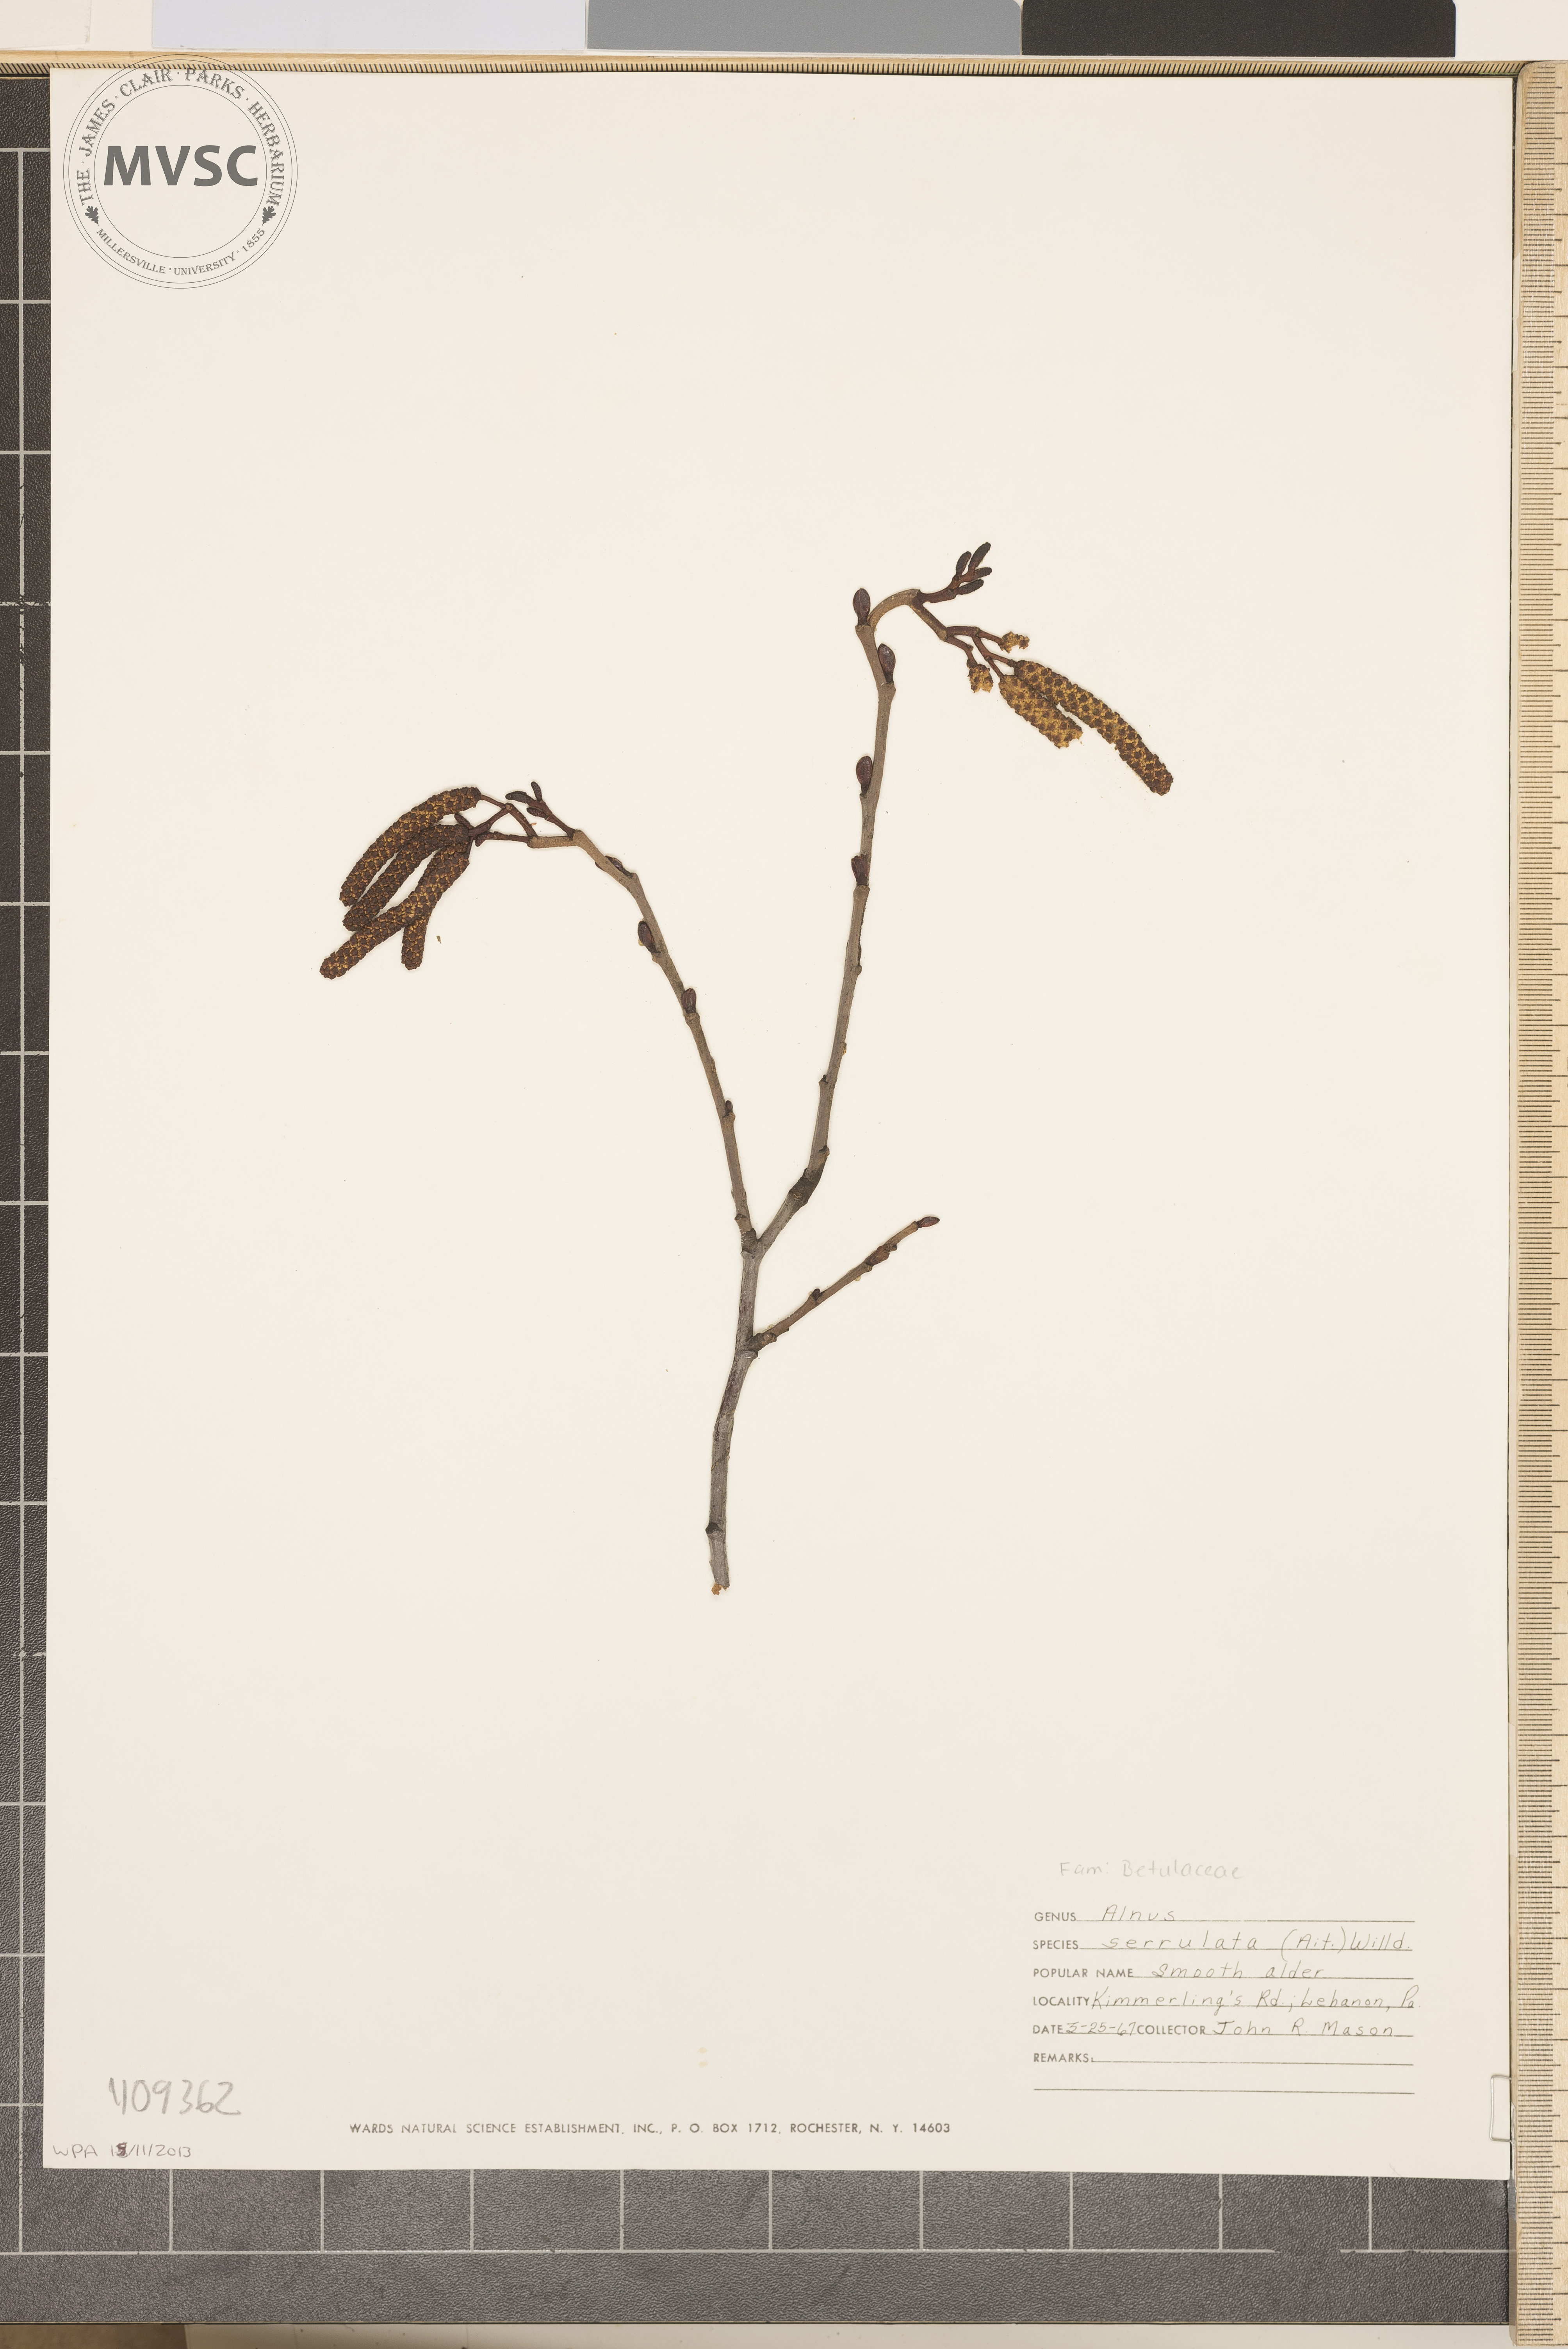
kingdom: Plantae
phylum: Tracheophyta
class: Magnoliopsida
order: Fagales
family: Betulaceae
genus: Alnus
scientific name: Alnus serrulata
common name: smooth alder
